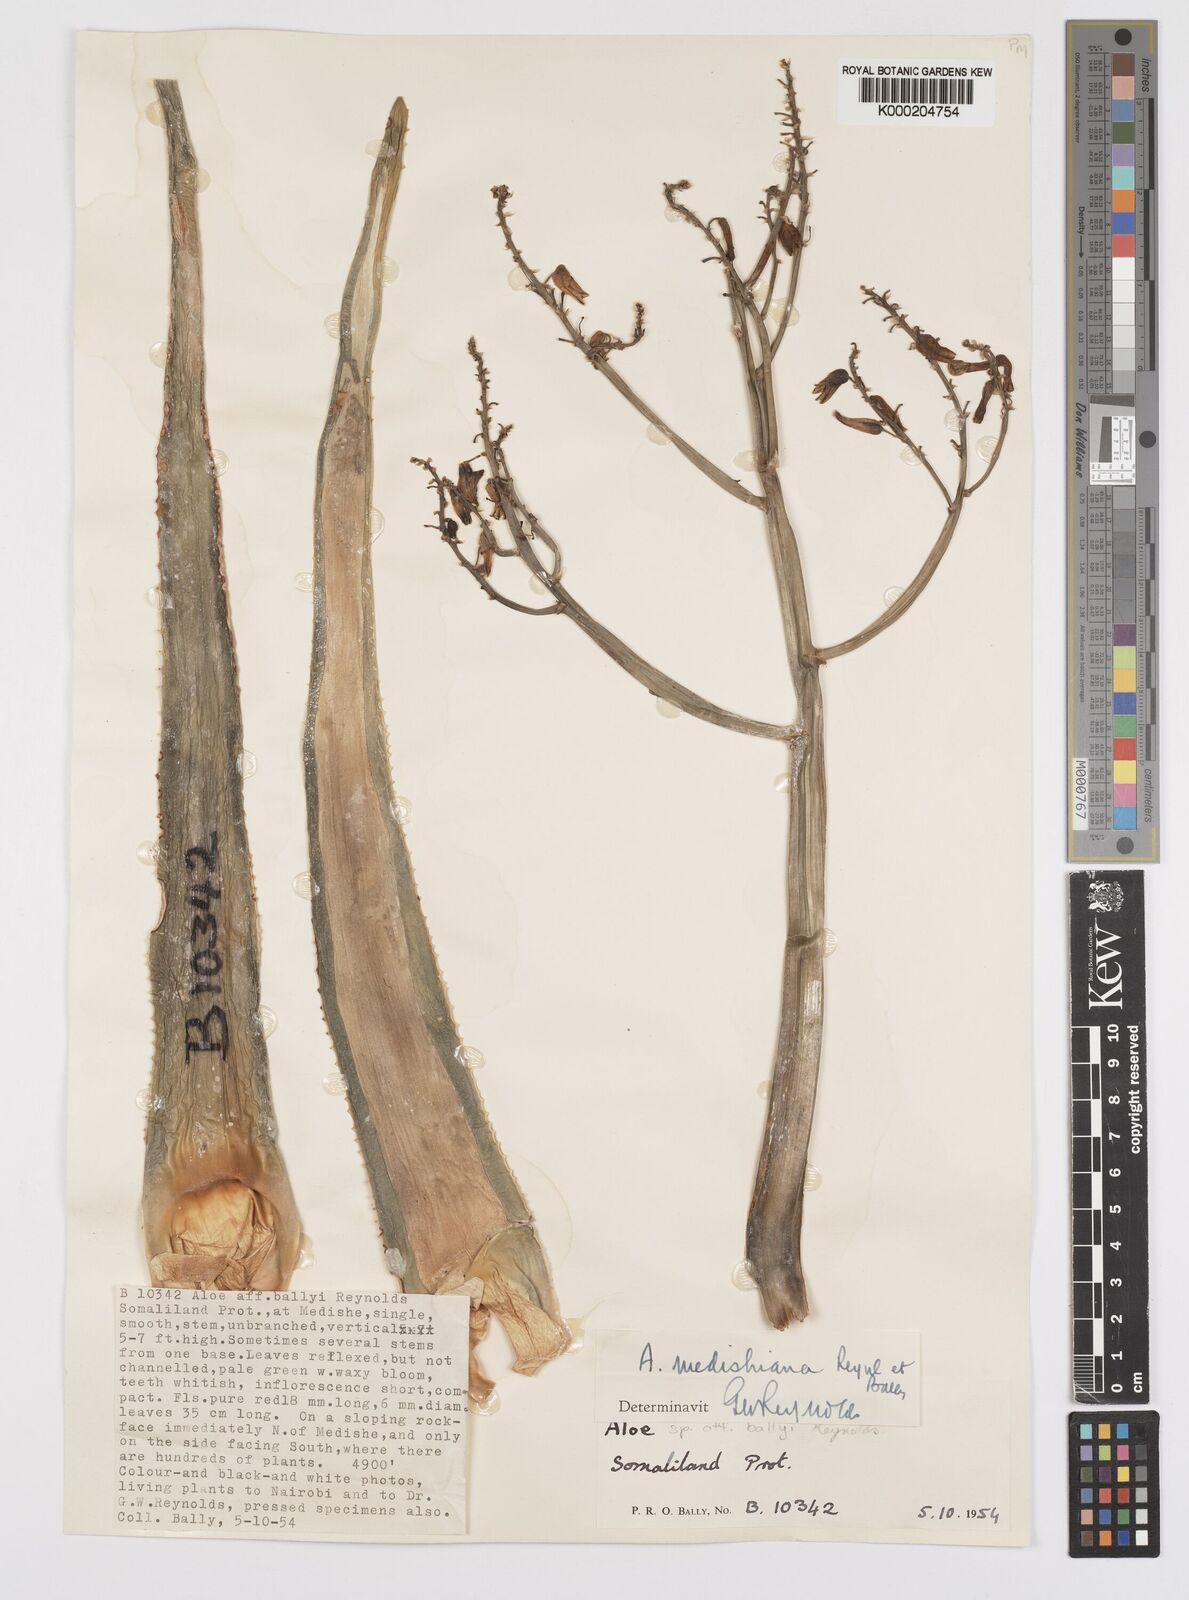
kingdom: Plantae
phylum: Tracheophyta
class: Liliopsida
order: Asparagales
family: Asphodelaceae
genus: Aloe
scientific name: Aloe medishiana
